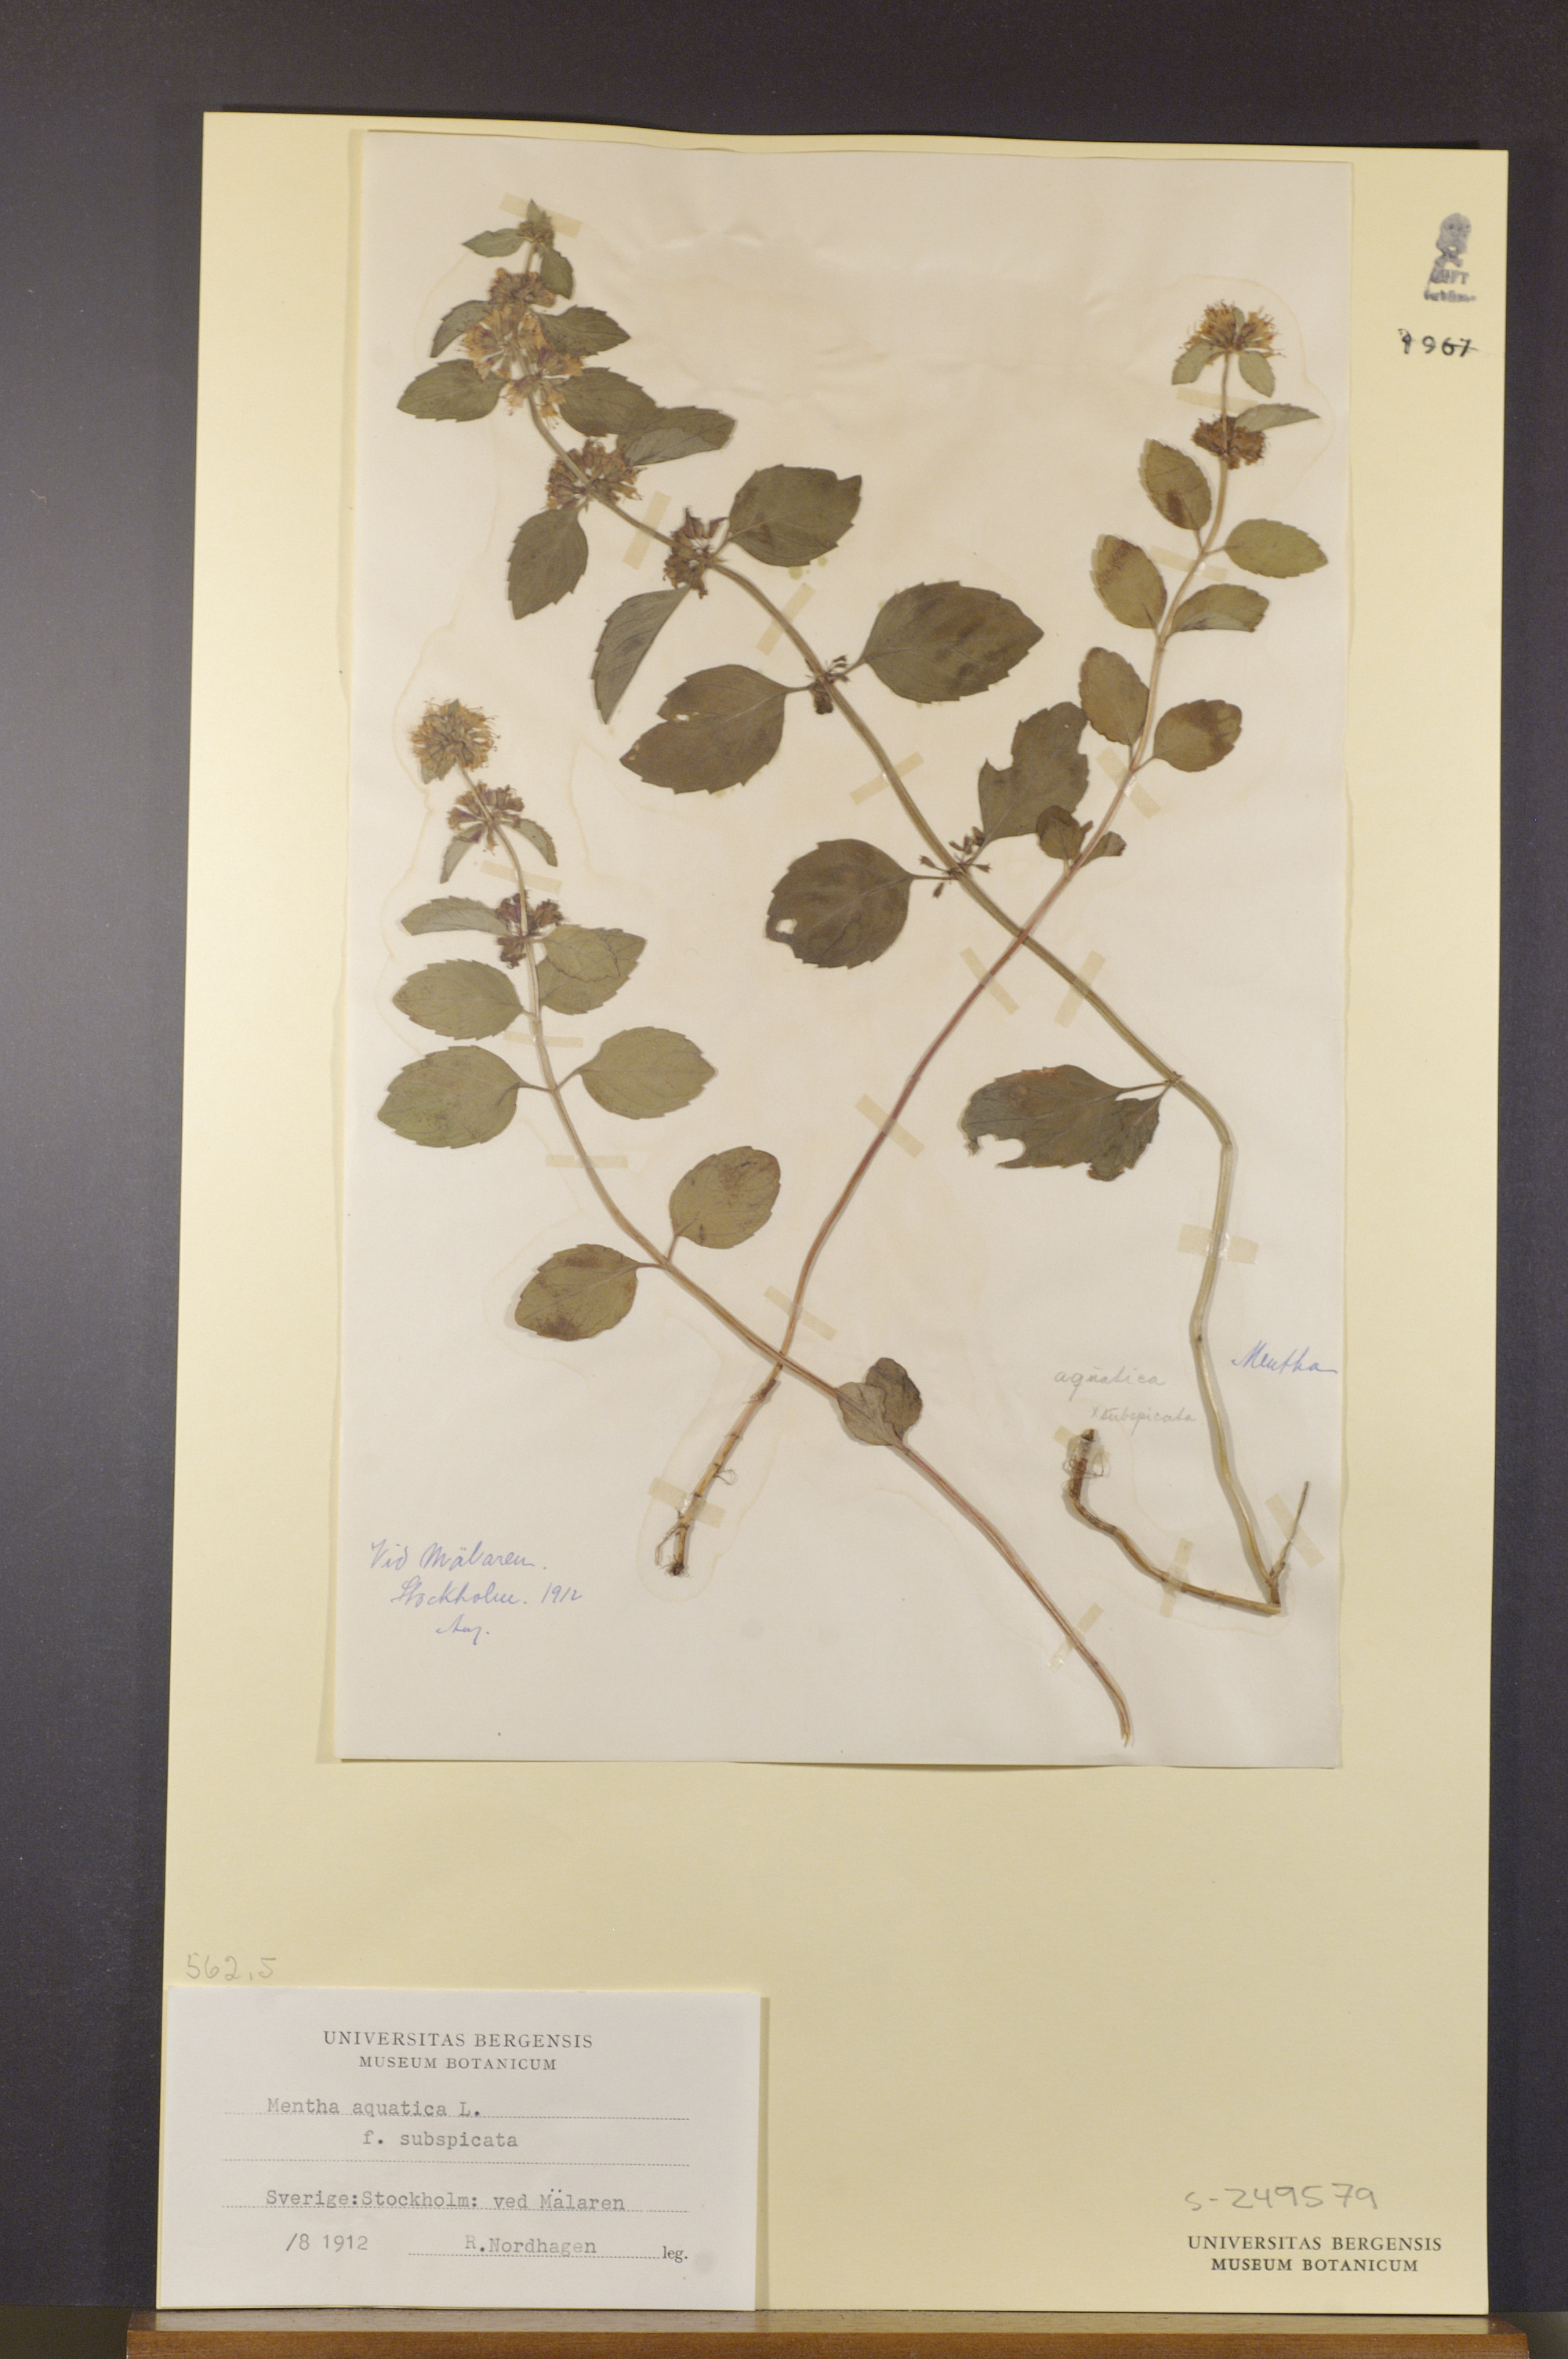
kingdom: Plantae
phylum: Tracheophyta
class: Magnoliopsida
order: Lamiales
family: Lamiaceae
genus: Mentha
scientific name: Mentha aquatica
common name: Water mint
